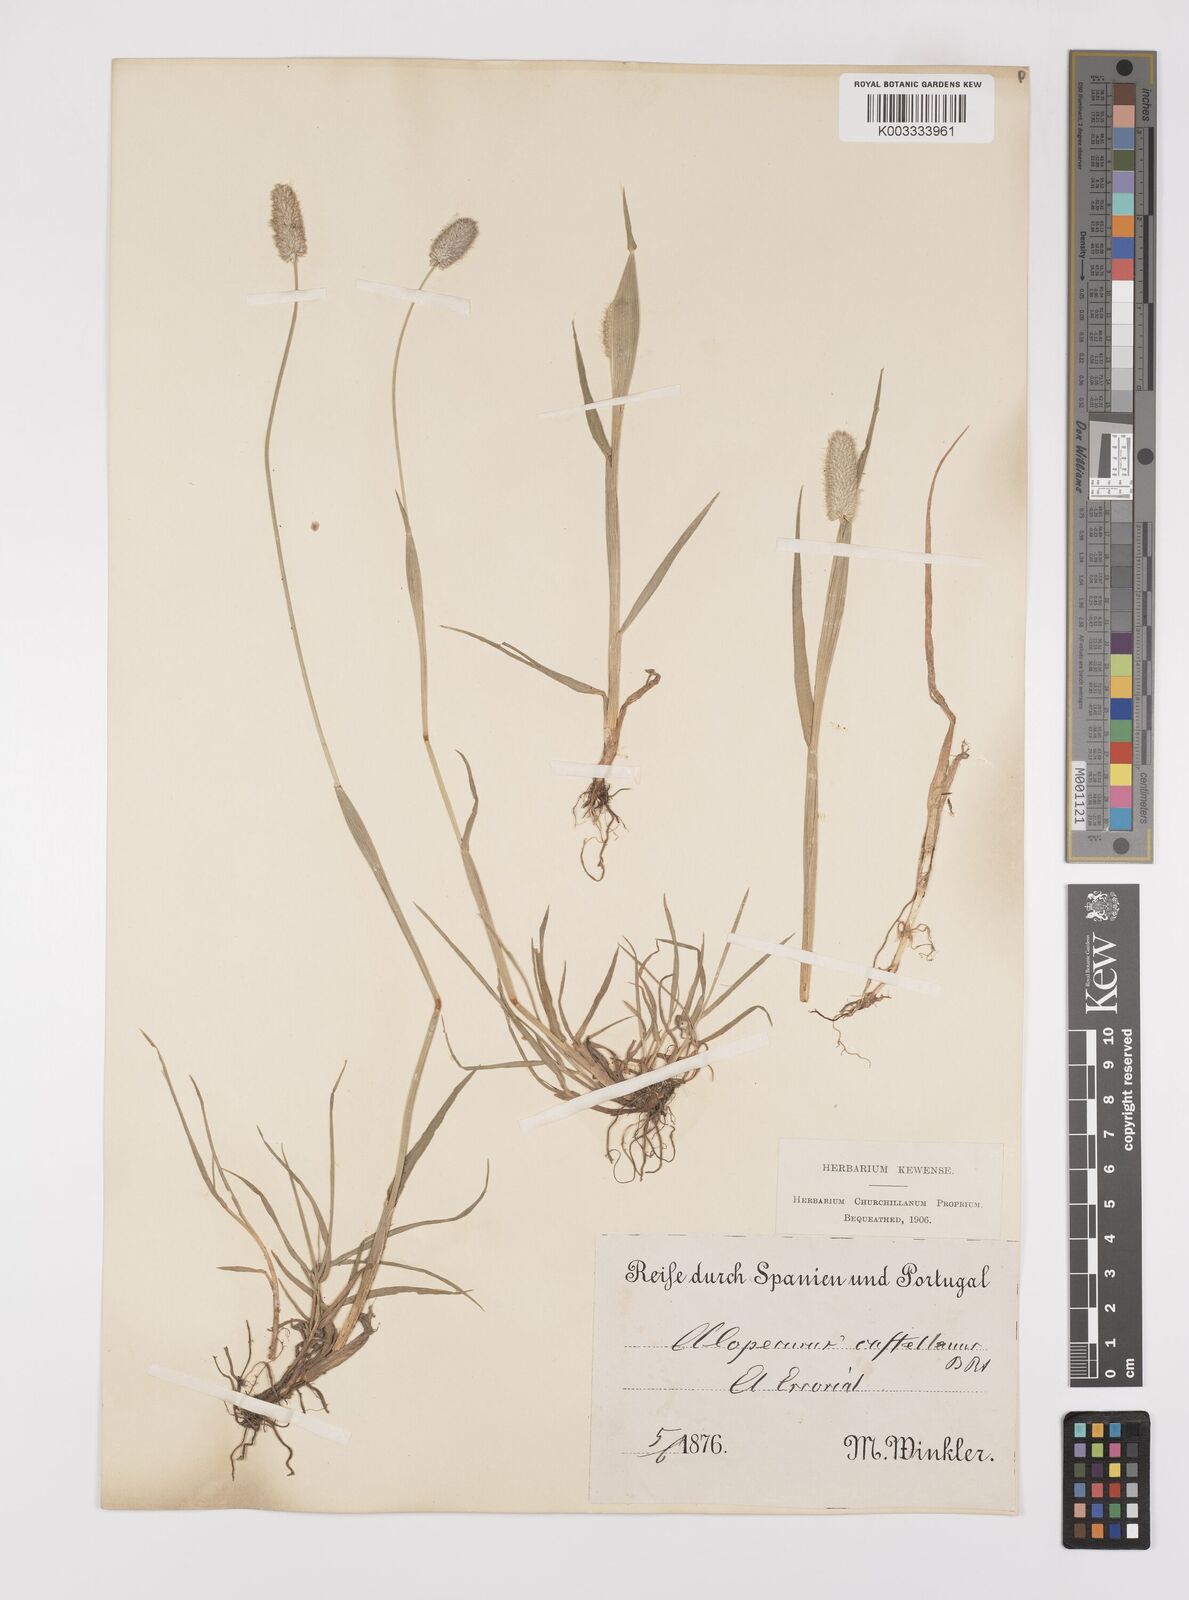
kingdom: Plantae
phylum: Tracheophyta
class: Liliopsida
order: Poales
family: Poaceae
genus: Alopecurus
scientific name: Alopecurus arundinaceus
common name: Creeping meadow foxtail
